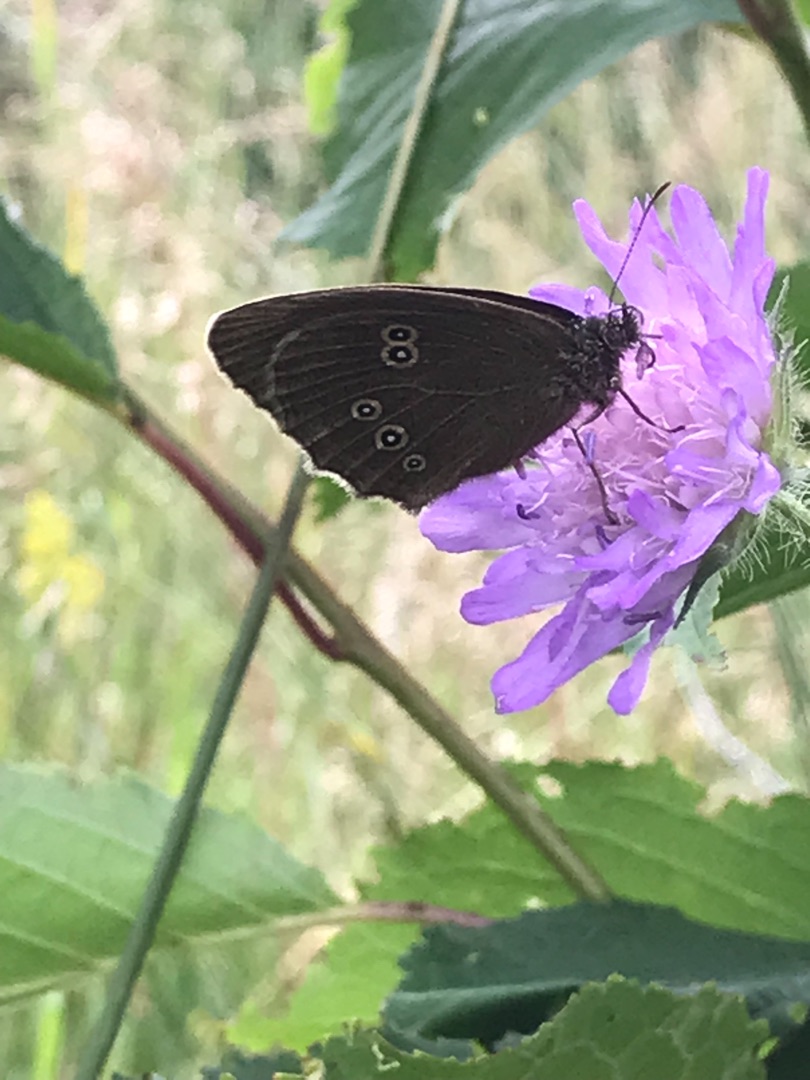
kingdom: Animalia
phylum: Arthropoda
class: Insecta
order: Lepidoptera
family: Nymphalidae
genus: Aphantopus
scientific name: Aphantopus hyperantus
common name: Engrandøje
